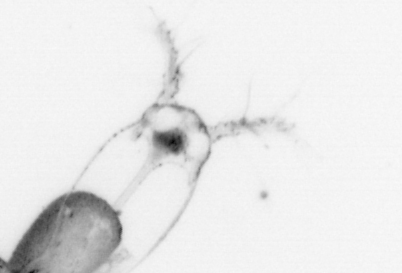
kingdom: Animalia
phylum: Arthropoda
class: Copepoda
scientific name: Copepoda
